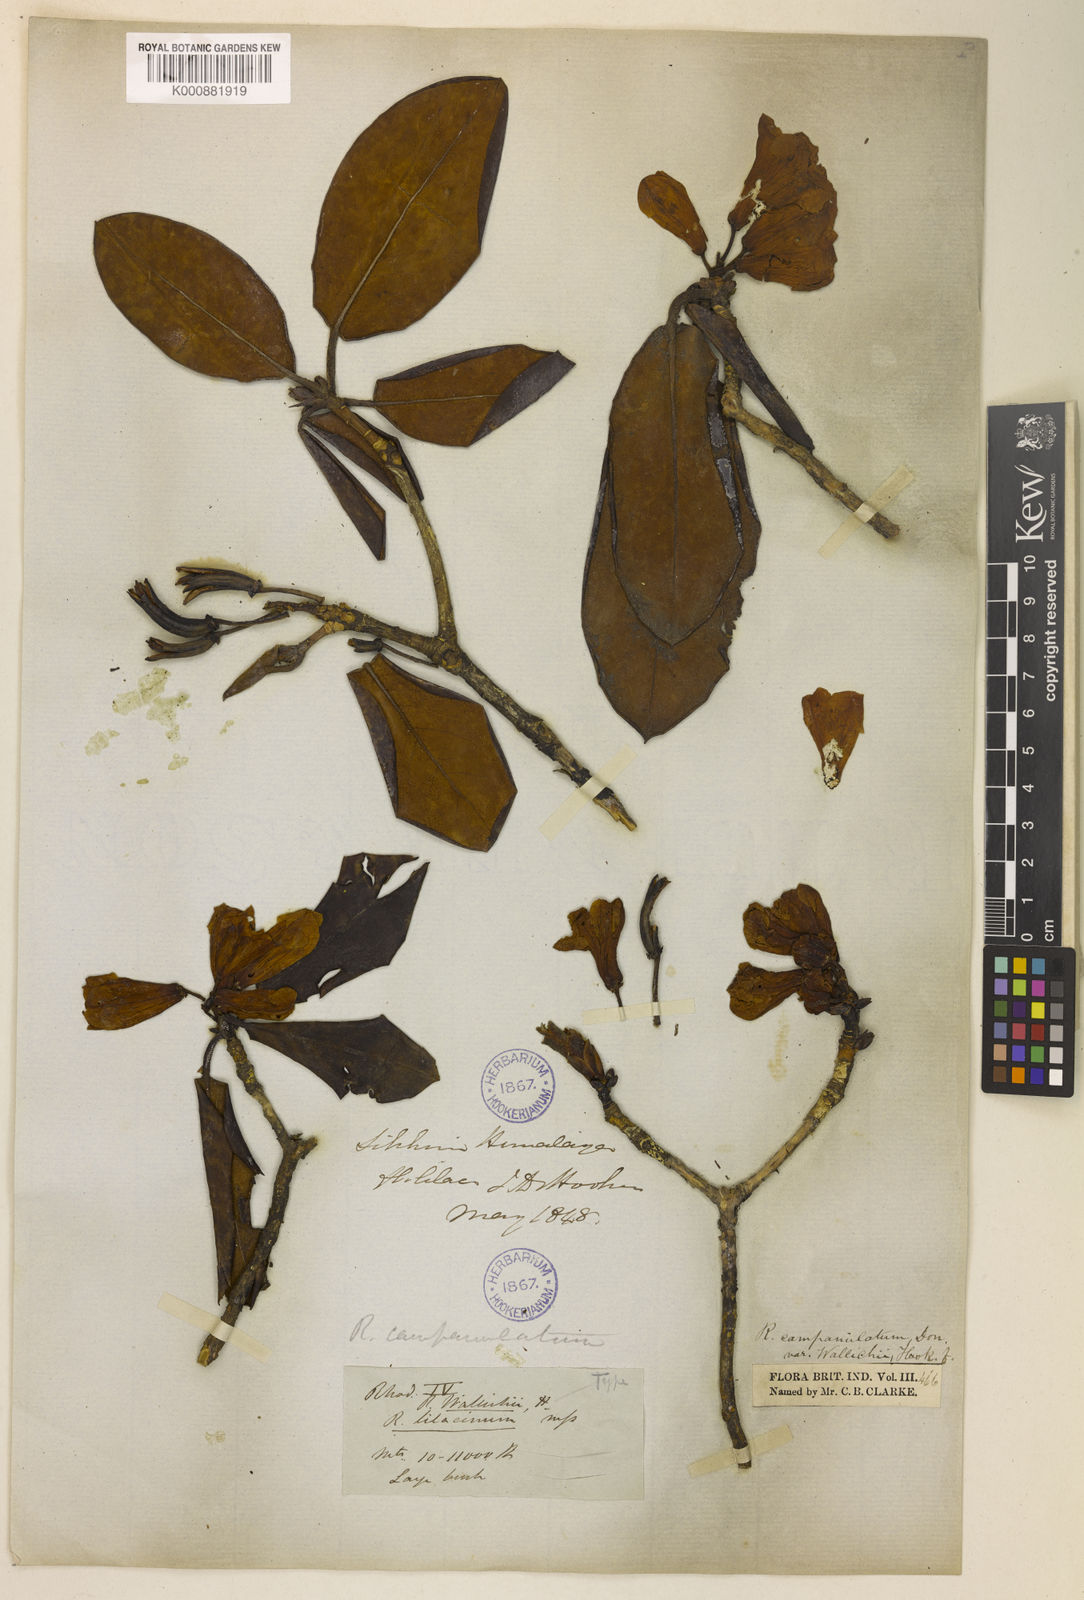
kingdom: Plantae
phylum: Tracheophyta
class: Magnoliopsida
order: Ericales
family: Ericaceae
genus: Rhododendron
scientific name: Rhododendron campanulatum
